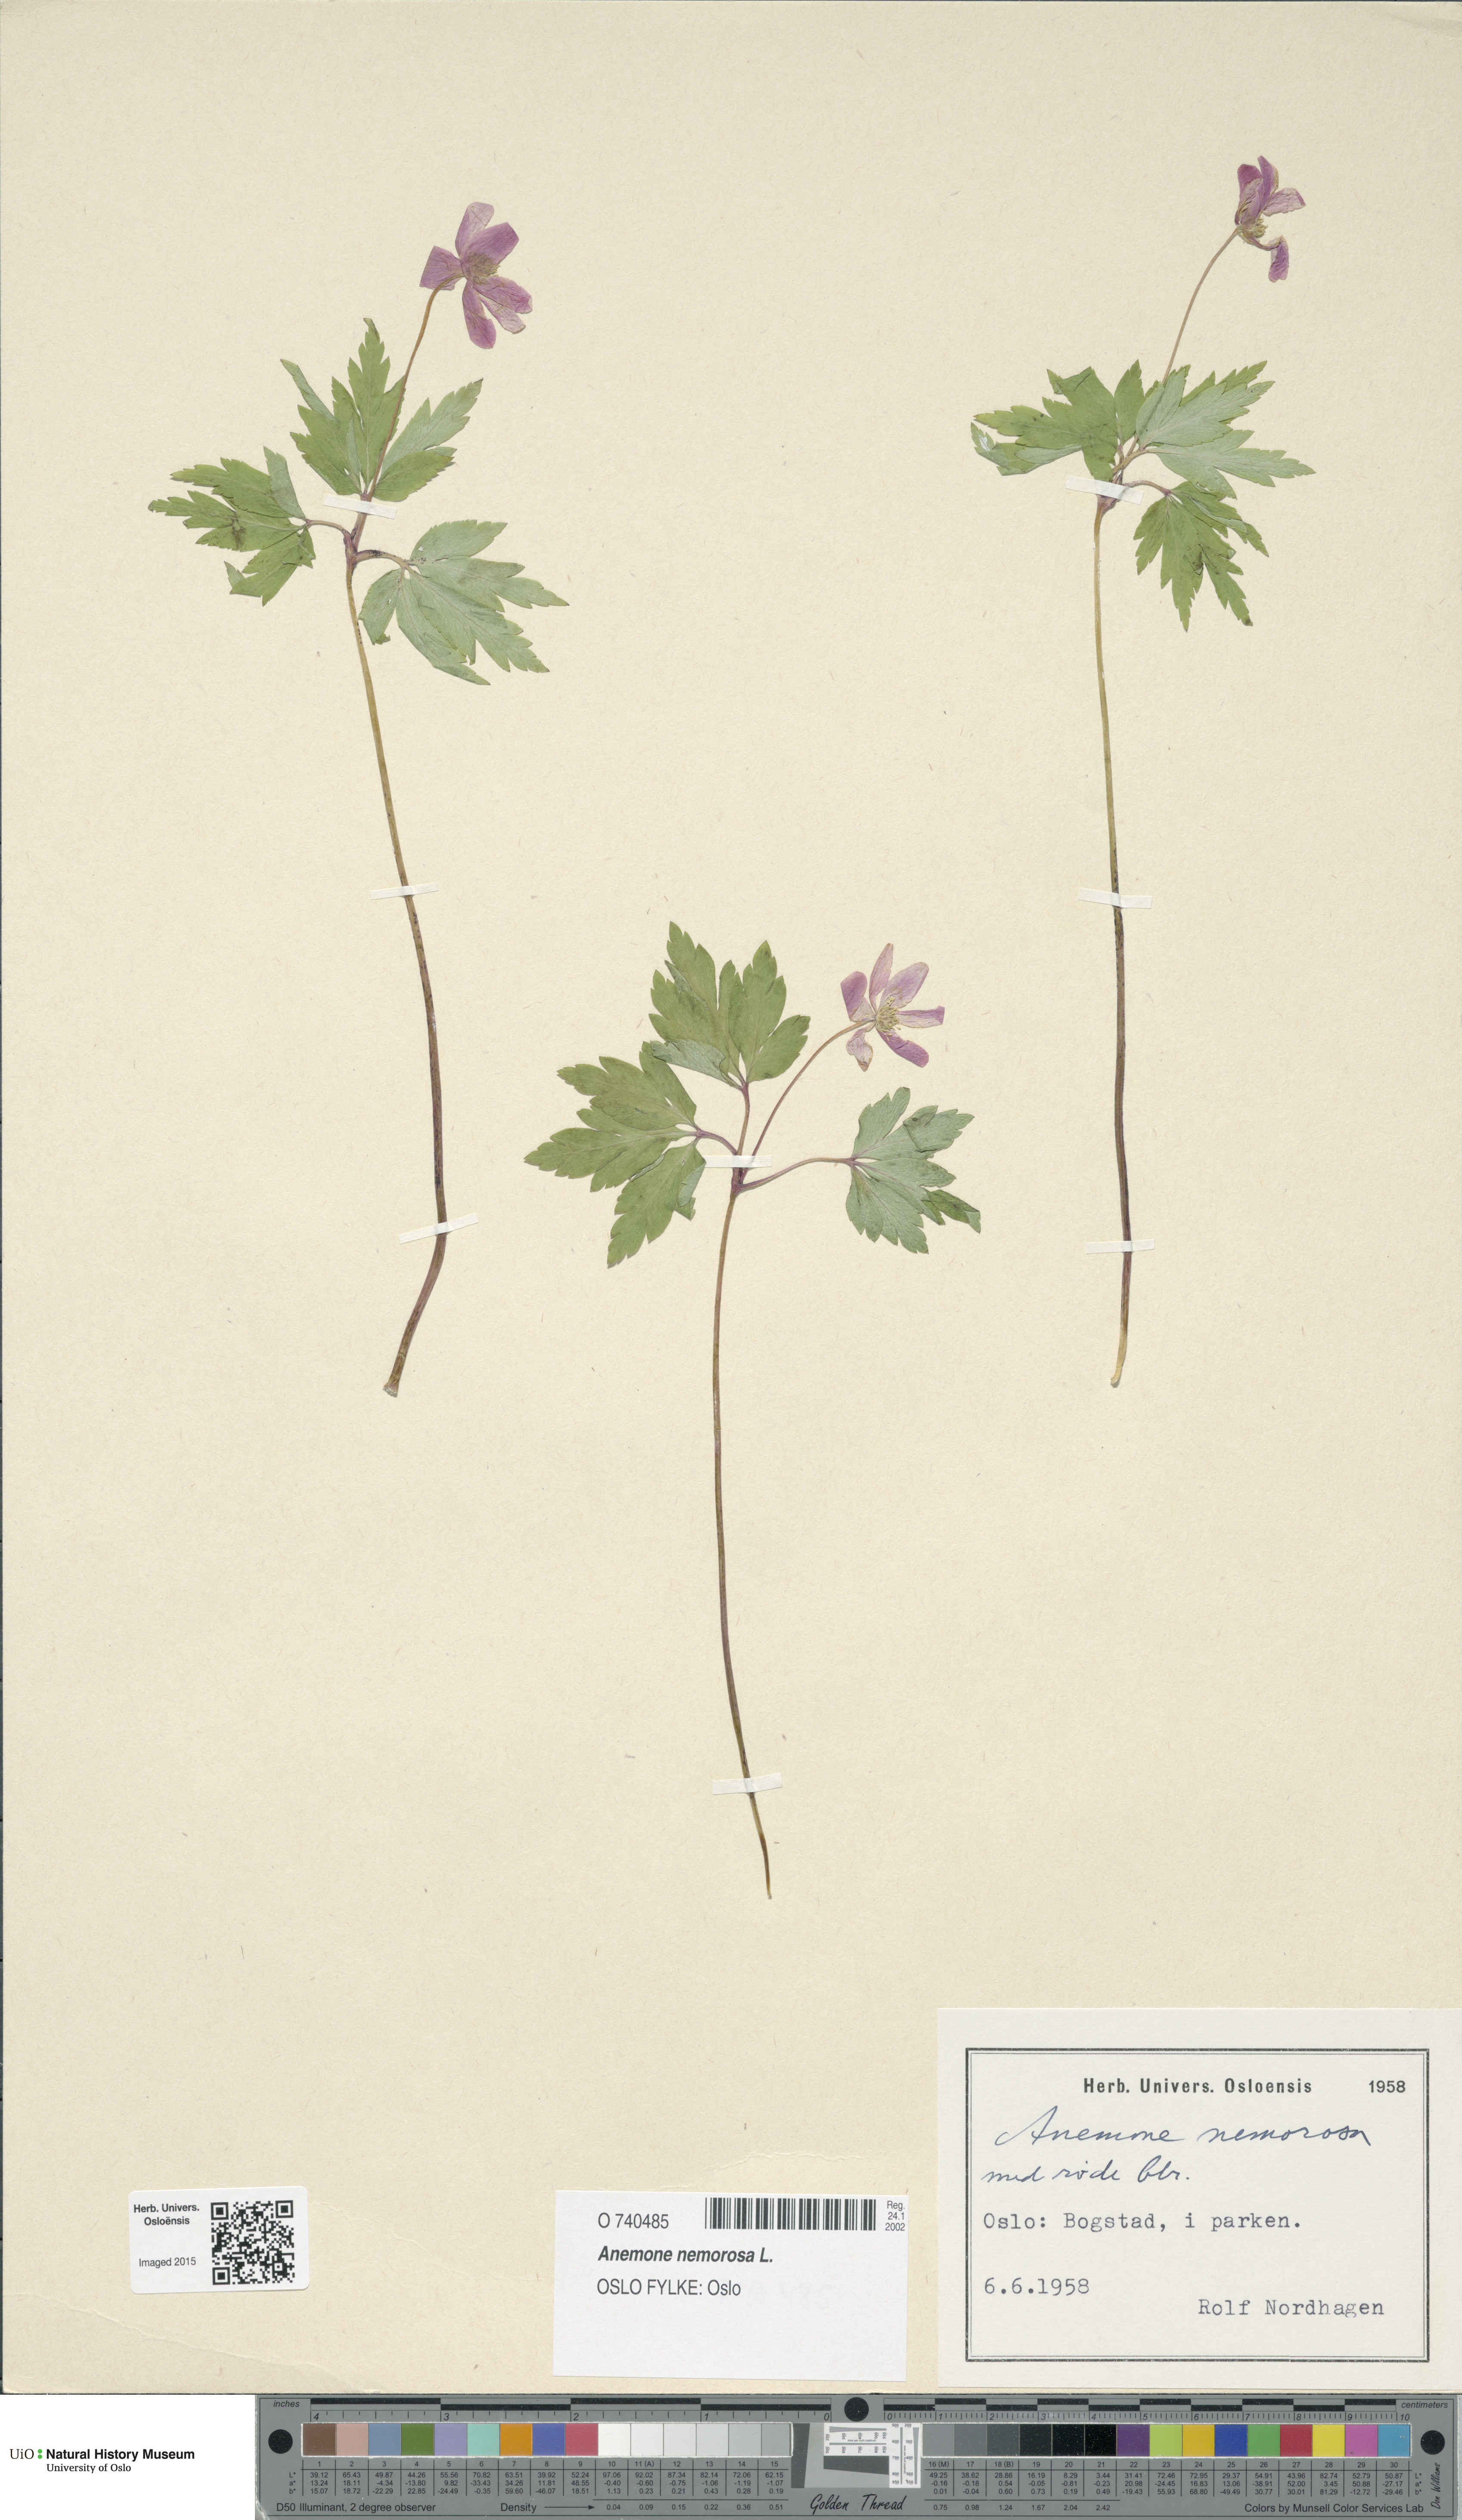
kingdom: Plantae
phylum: Tracheophyta
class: Magnoliopsida
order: Ranunculales
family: Ranunculaceae
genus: Anemone
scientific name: Anemone nemorosa
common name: Wood anemone
